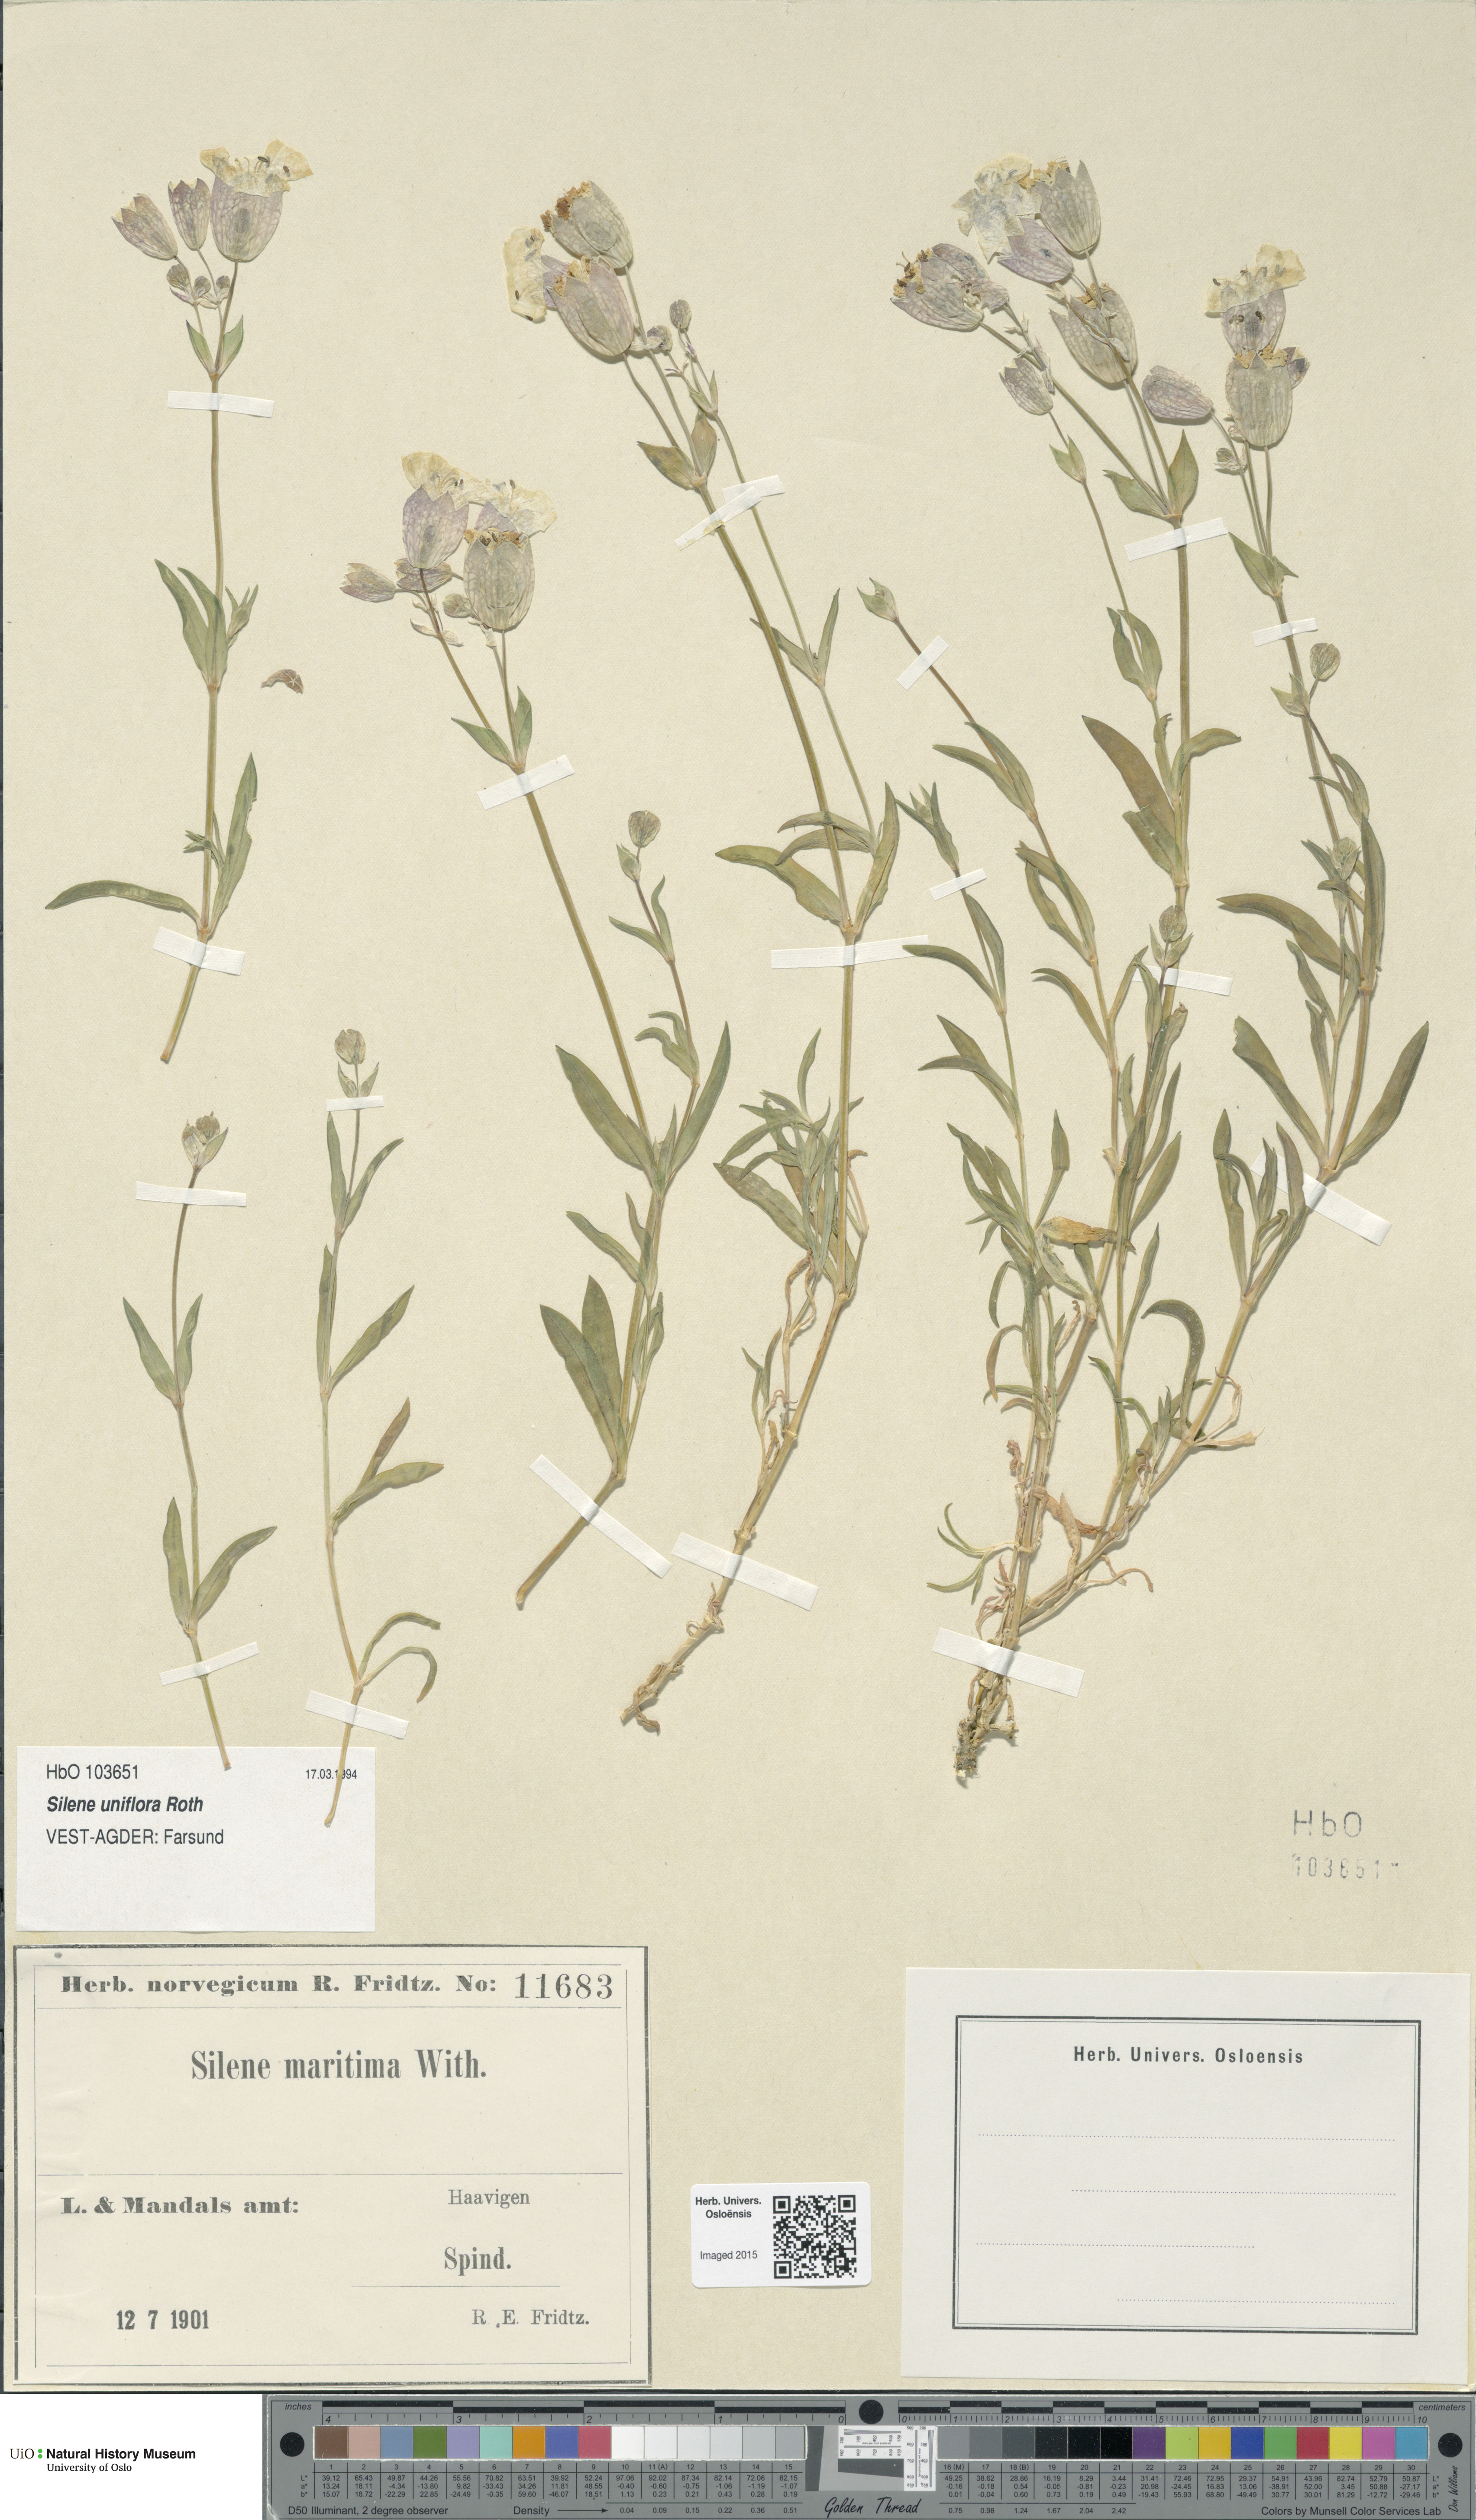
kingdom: Plantae
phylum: Tracheophyta
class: Magnoliopsida
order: Caryophyllales
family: Caryophyllaceae
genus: Silene
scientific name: Silene uniflora
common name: Sea campion
